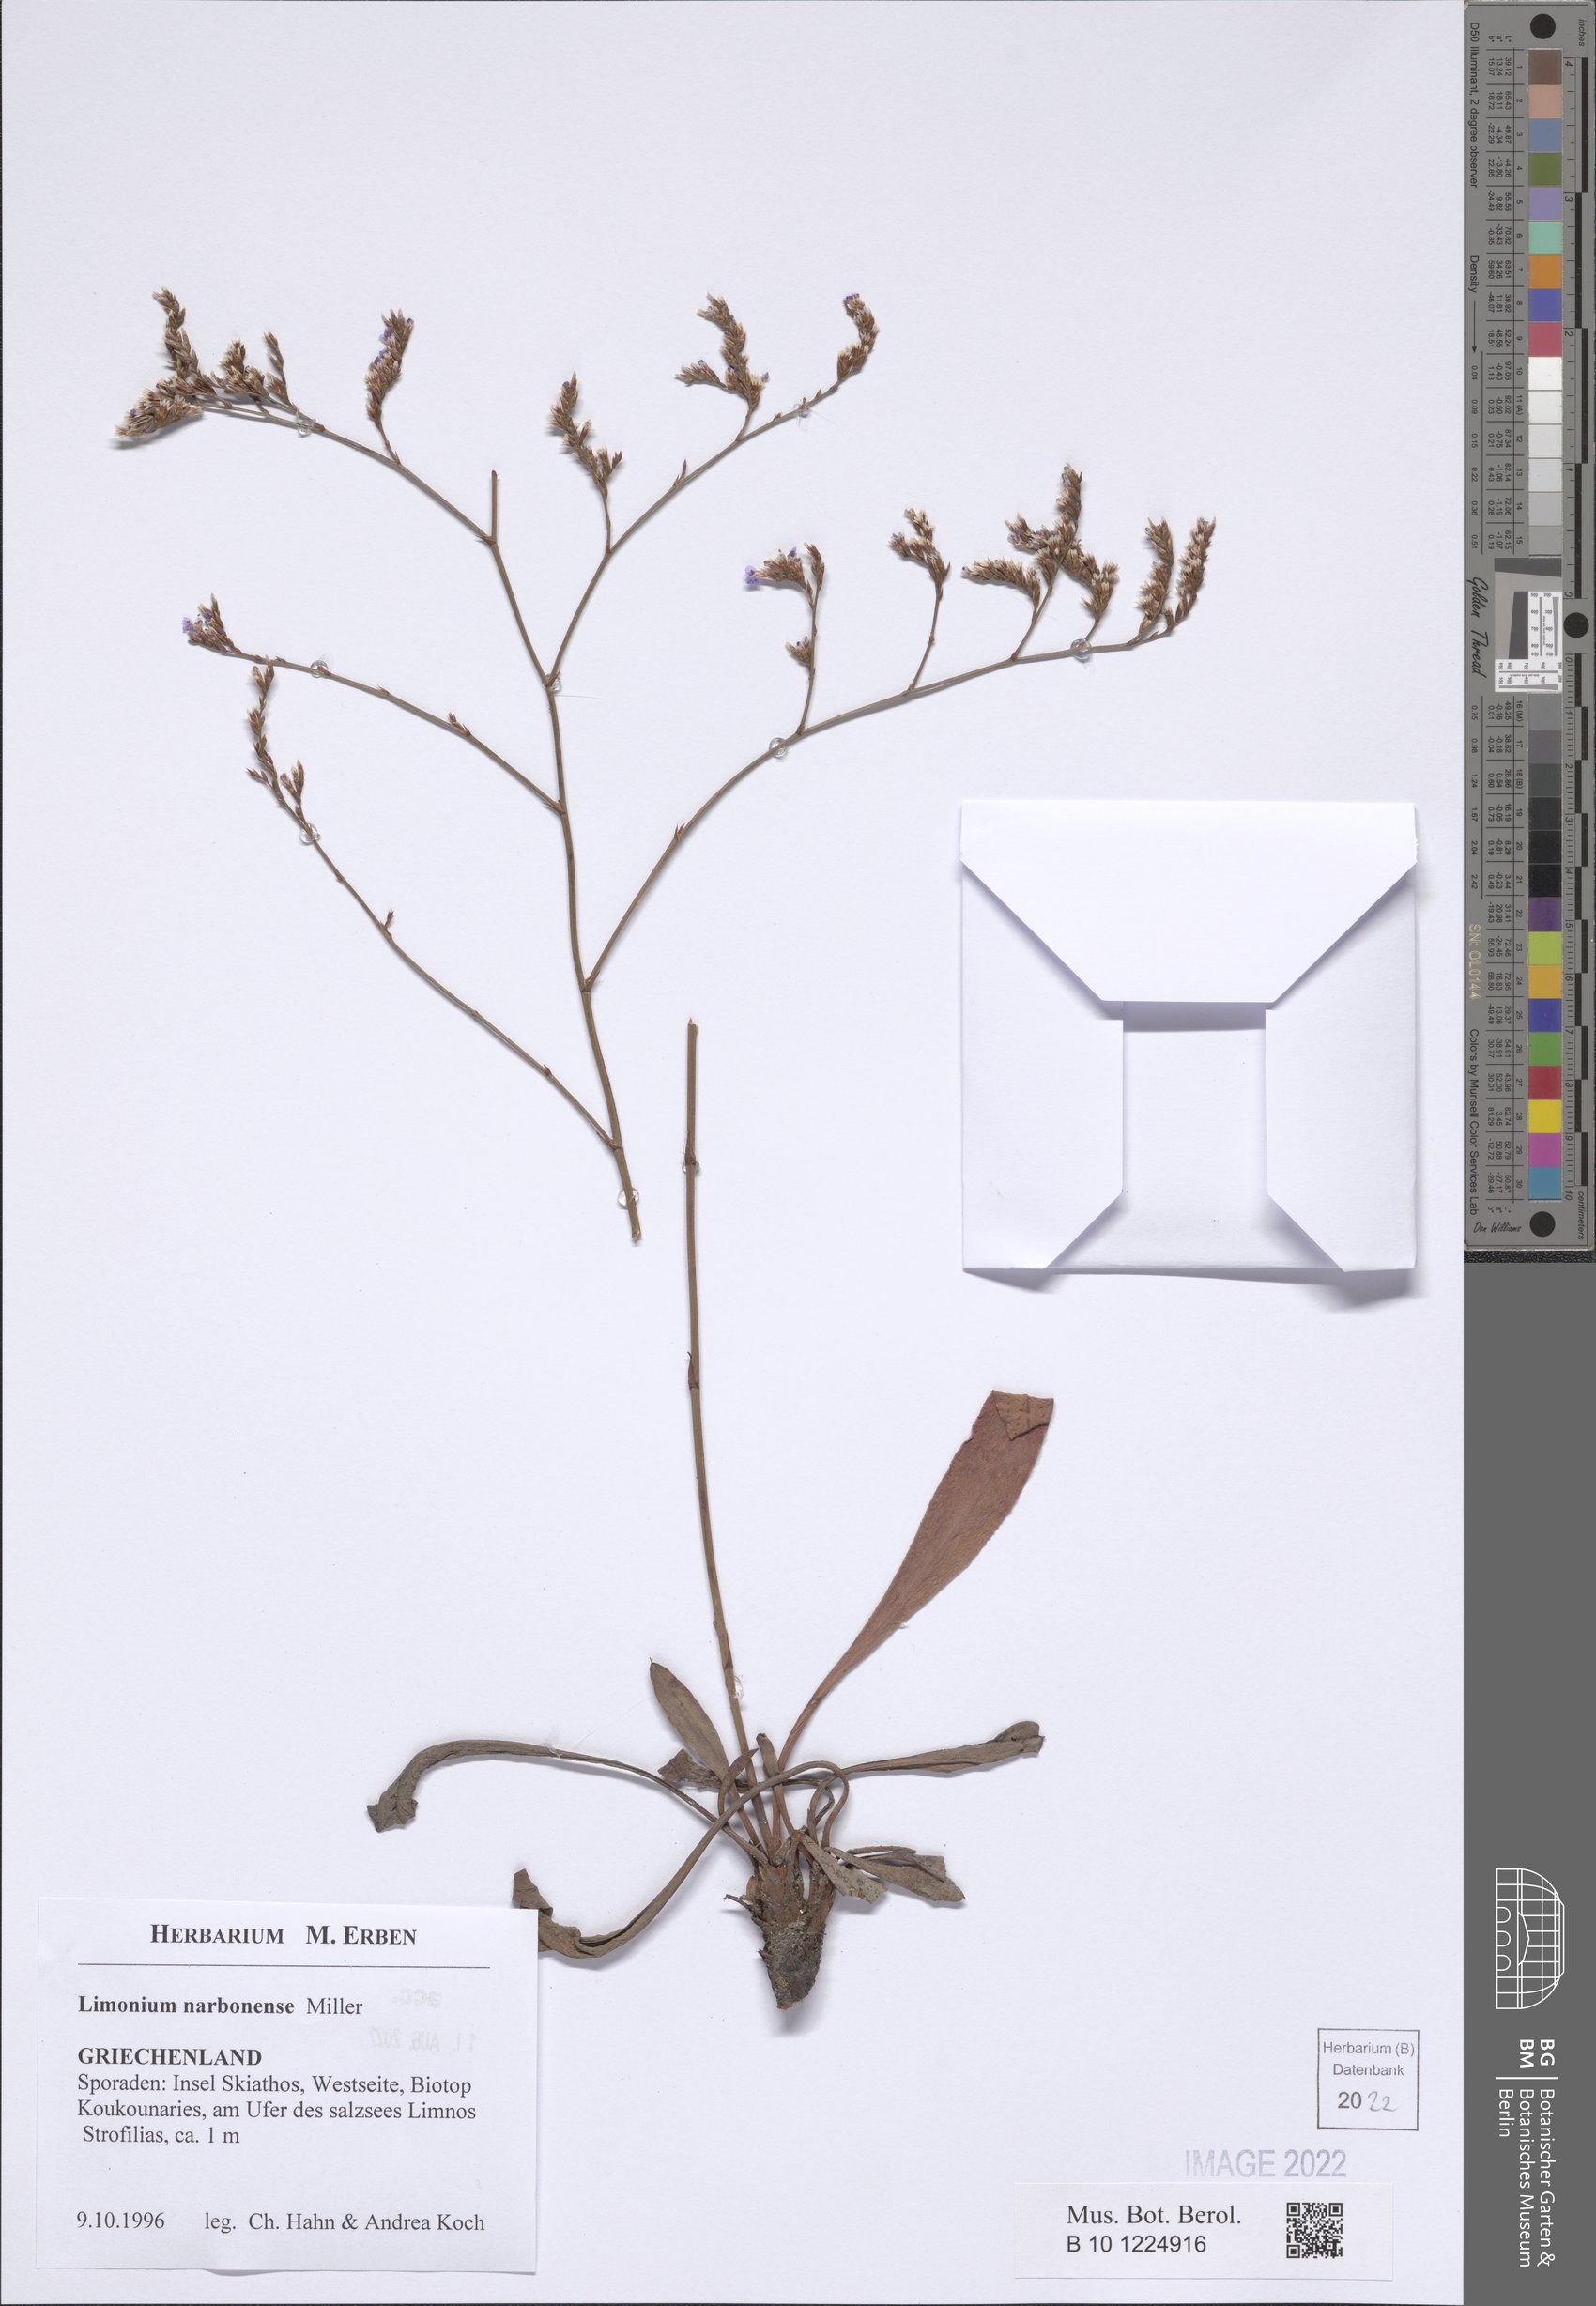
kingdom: Plantae
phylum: Tracheophyta
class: Magnoliopsida
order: Caryophyllales
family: Plumbaginaceae
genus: Limonium
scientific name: Limonium narbonense
